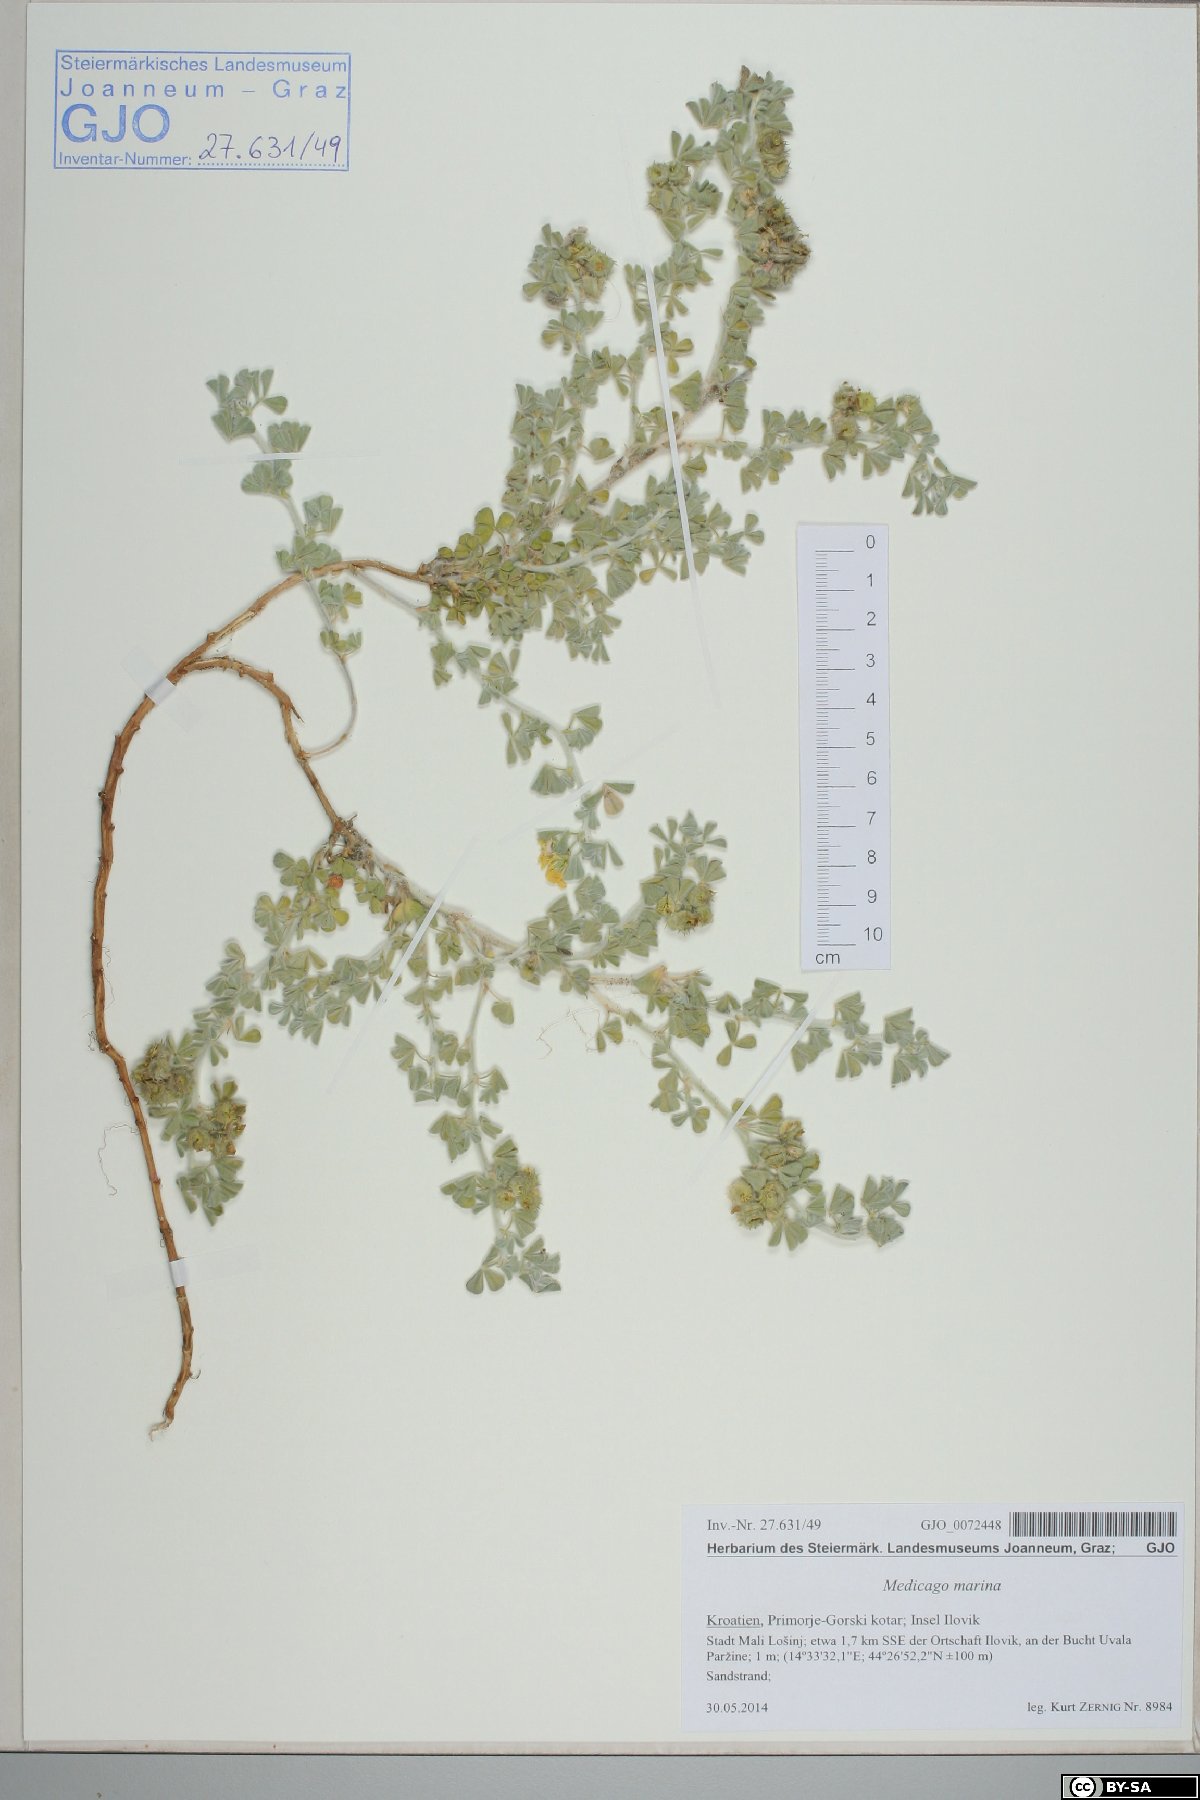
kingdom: Plantae
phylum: Tracheophyta
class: Magnoliopsida
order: Fabales
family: Fabaceae
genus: Medicago
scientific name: Medicago marina
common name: Sea medick
